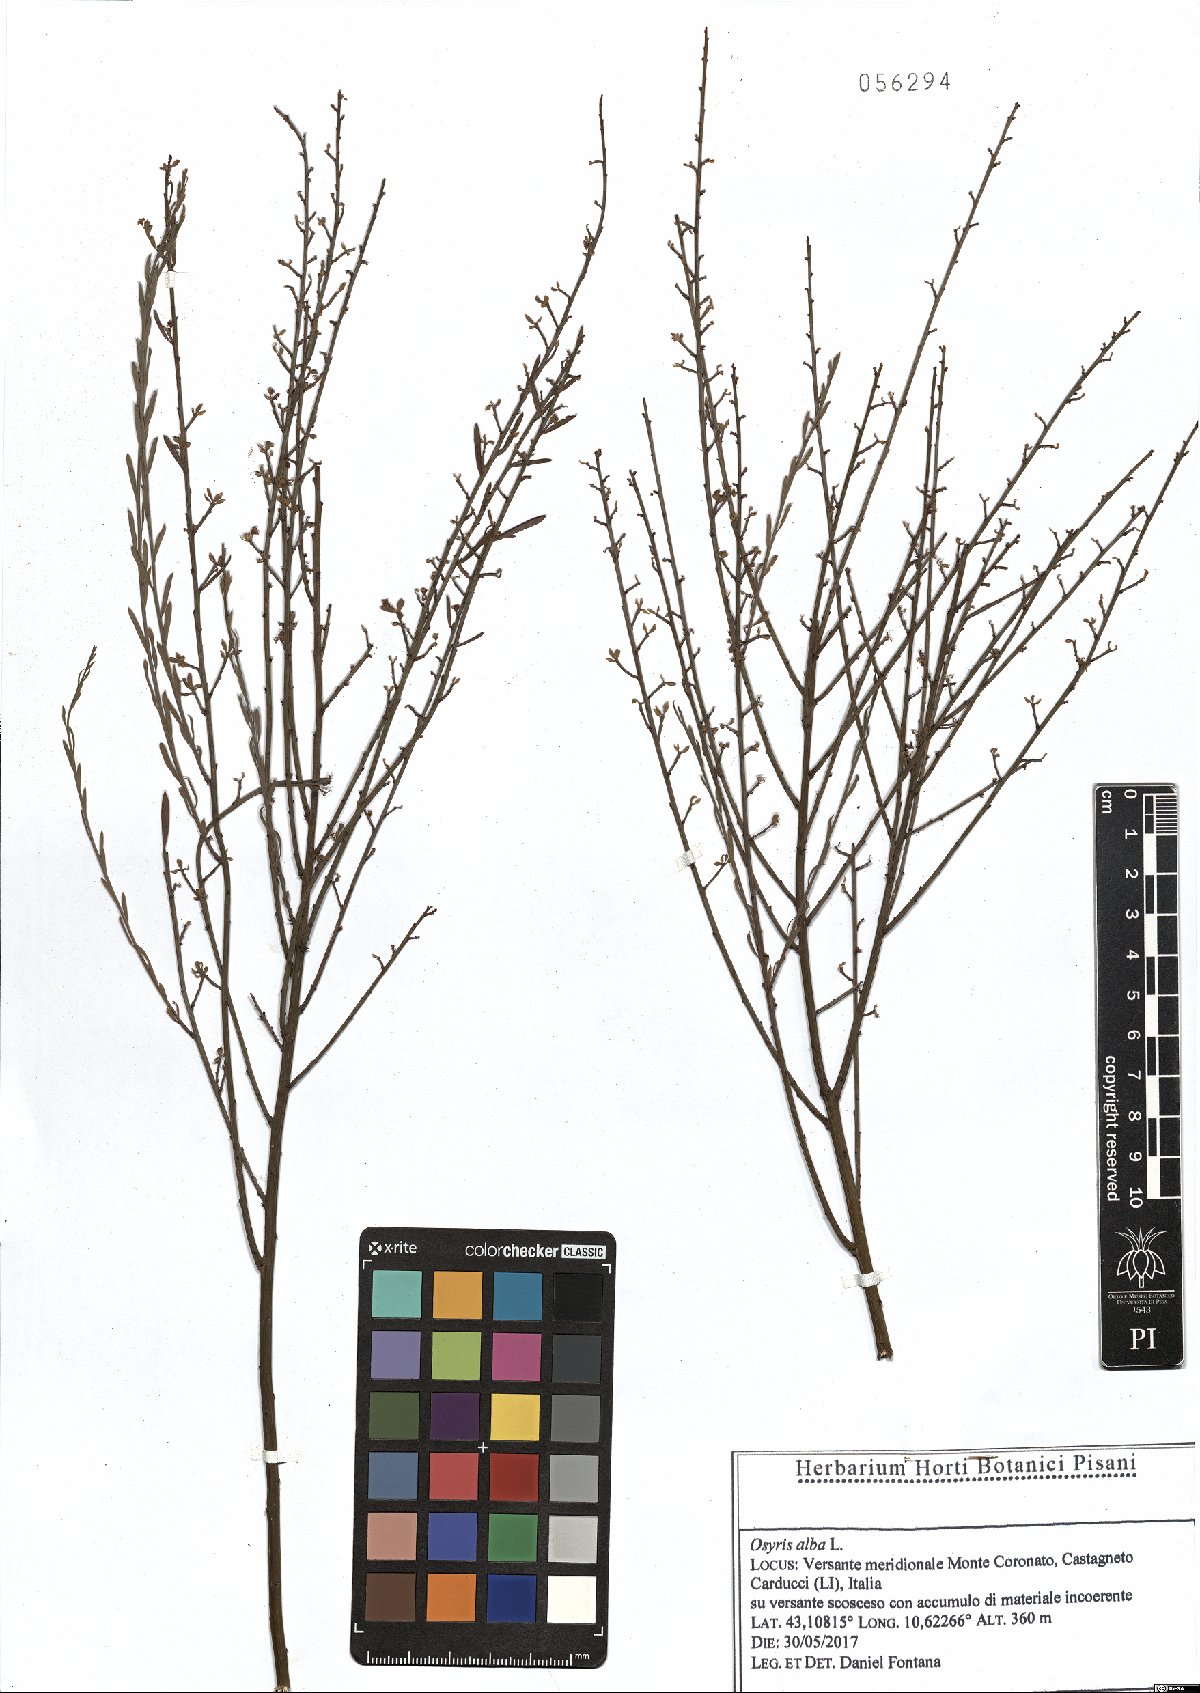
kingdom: Plantae
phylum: Tracheophyta
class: Magnoliopsida
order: Santalales
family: Santalaceae
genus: Osyris
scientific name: Osyris alba
